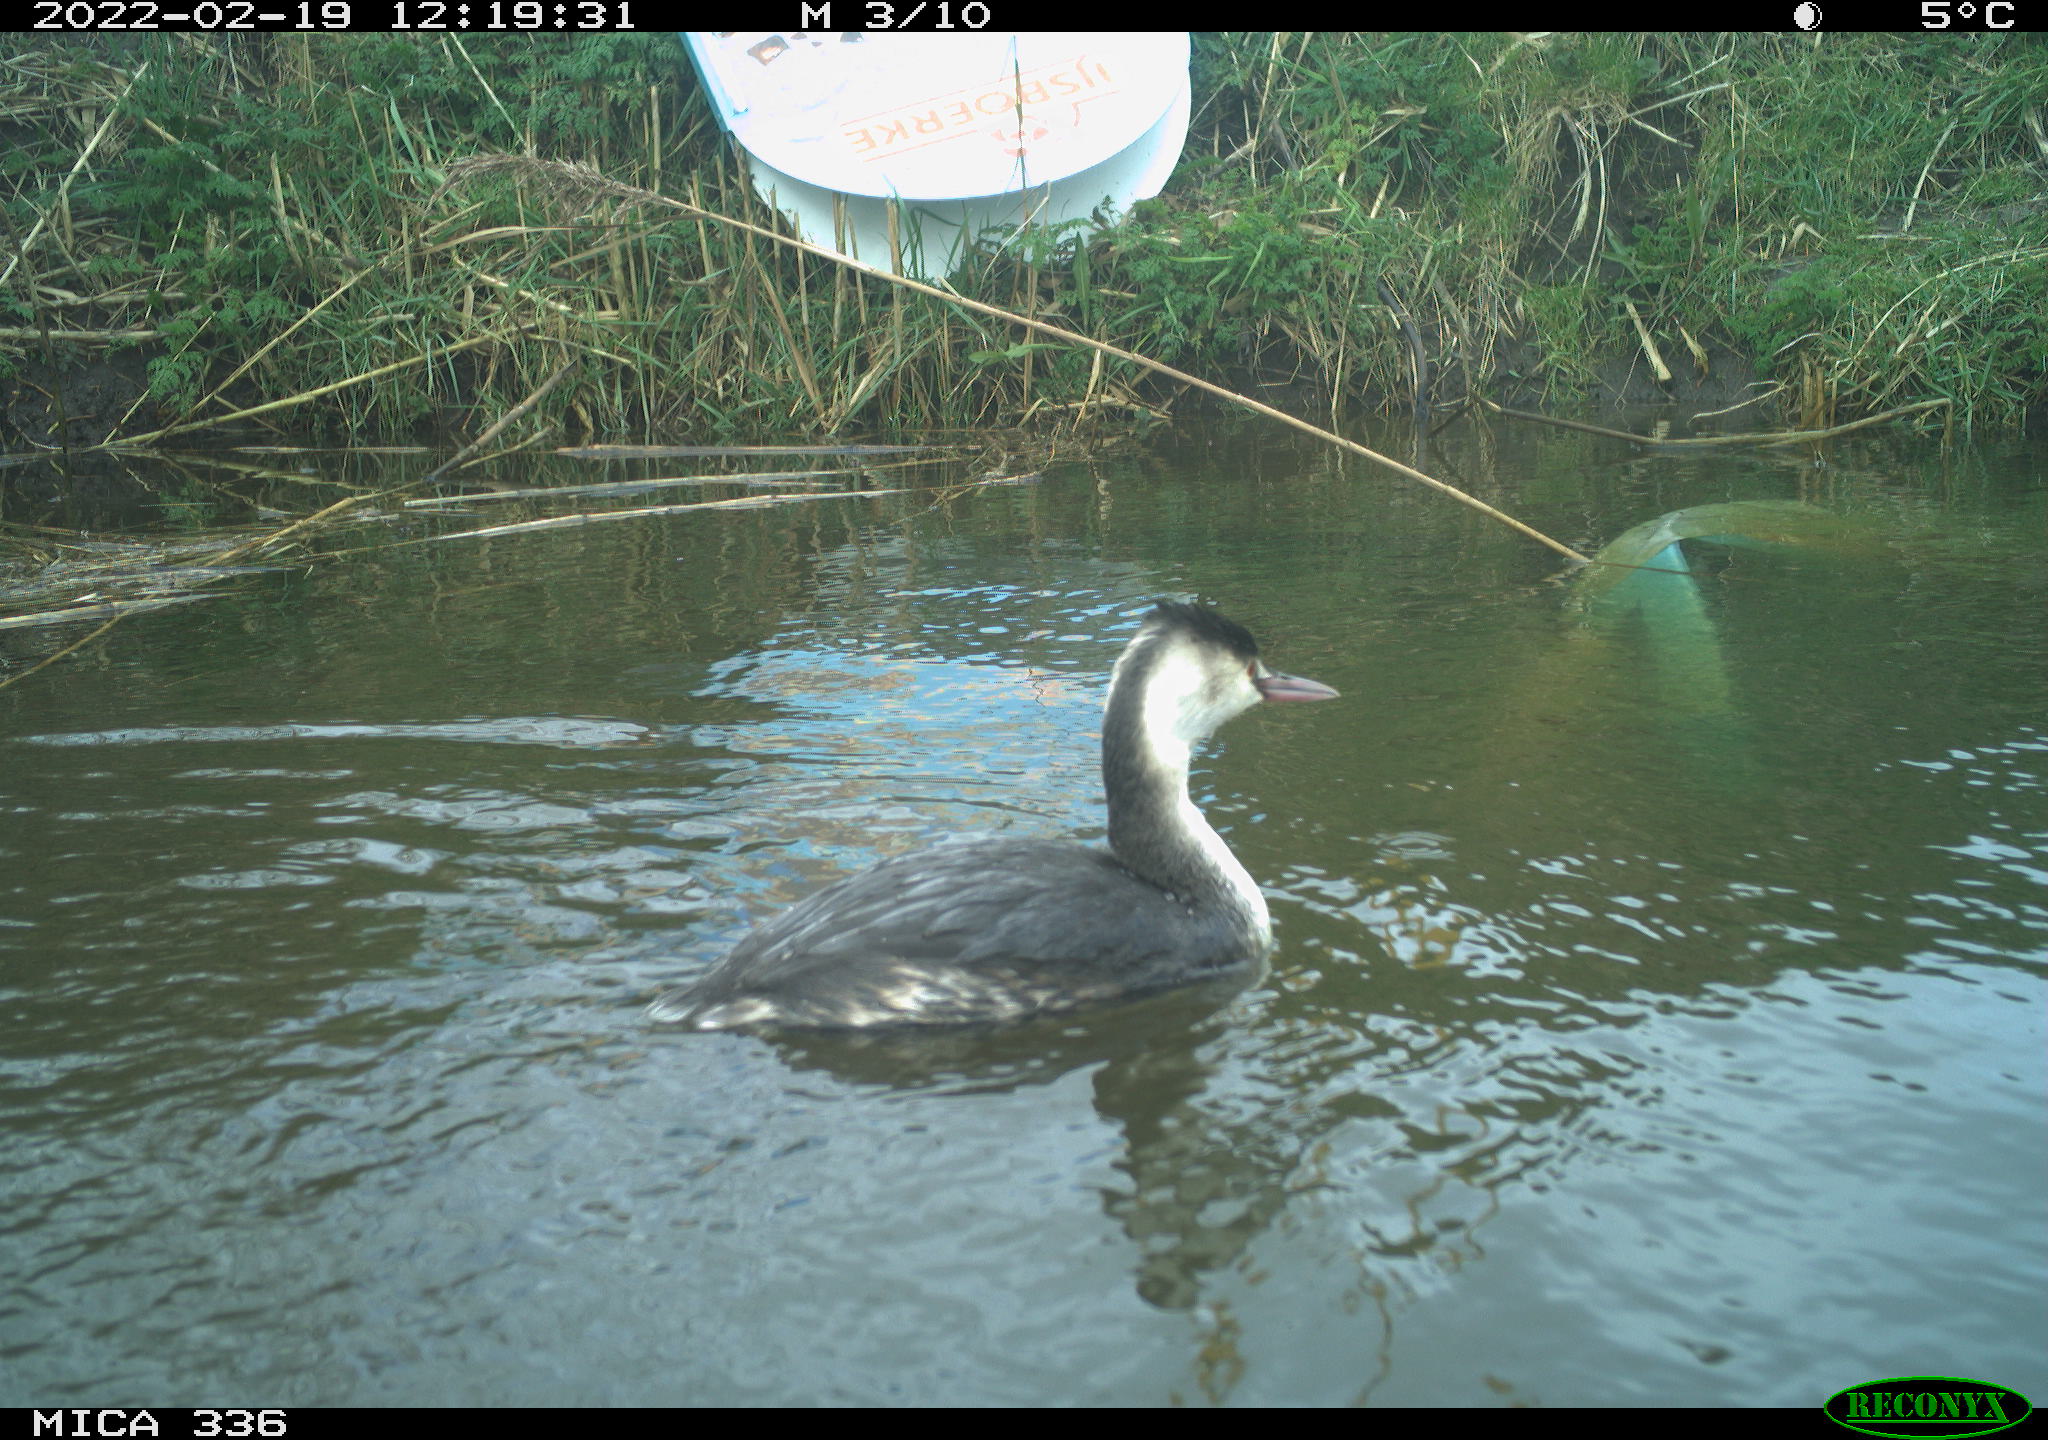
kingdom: Animalia
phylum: Chordata
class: Aves
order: Podicipediformes
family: Podicipedidae
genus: Podiceps
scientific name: Podiceps cristatus
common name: Great crested grebe
